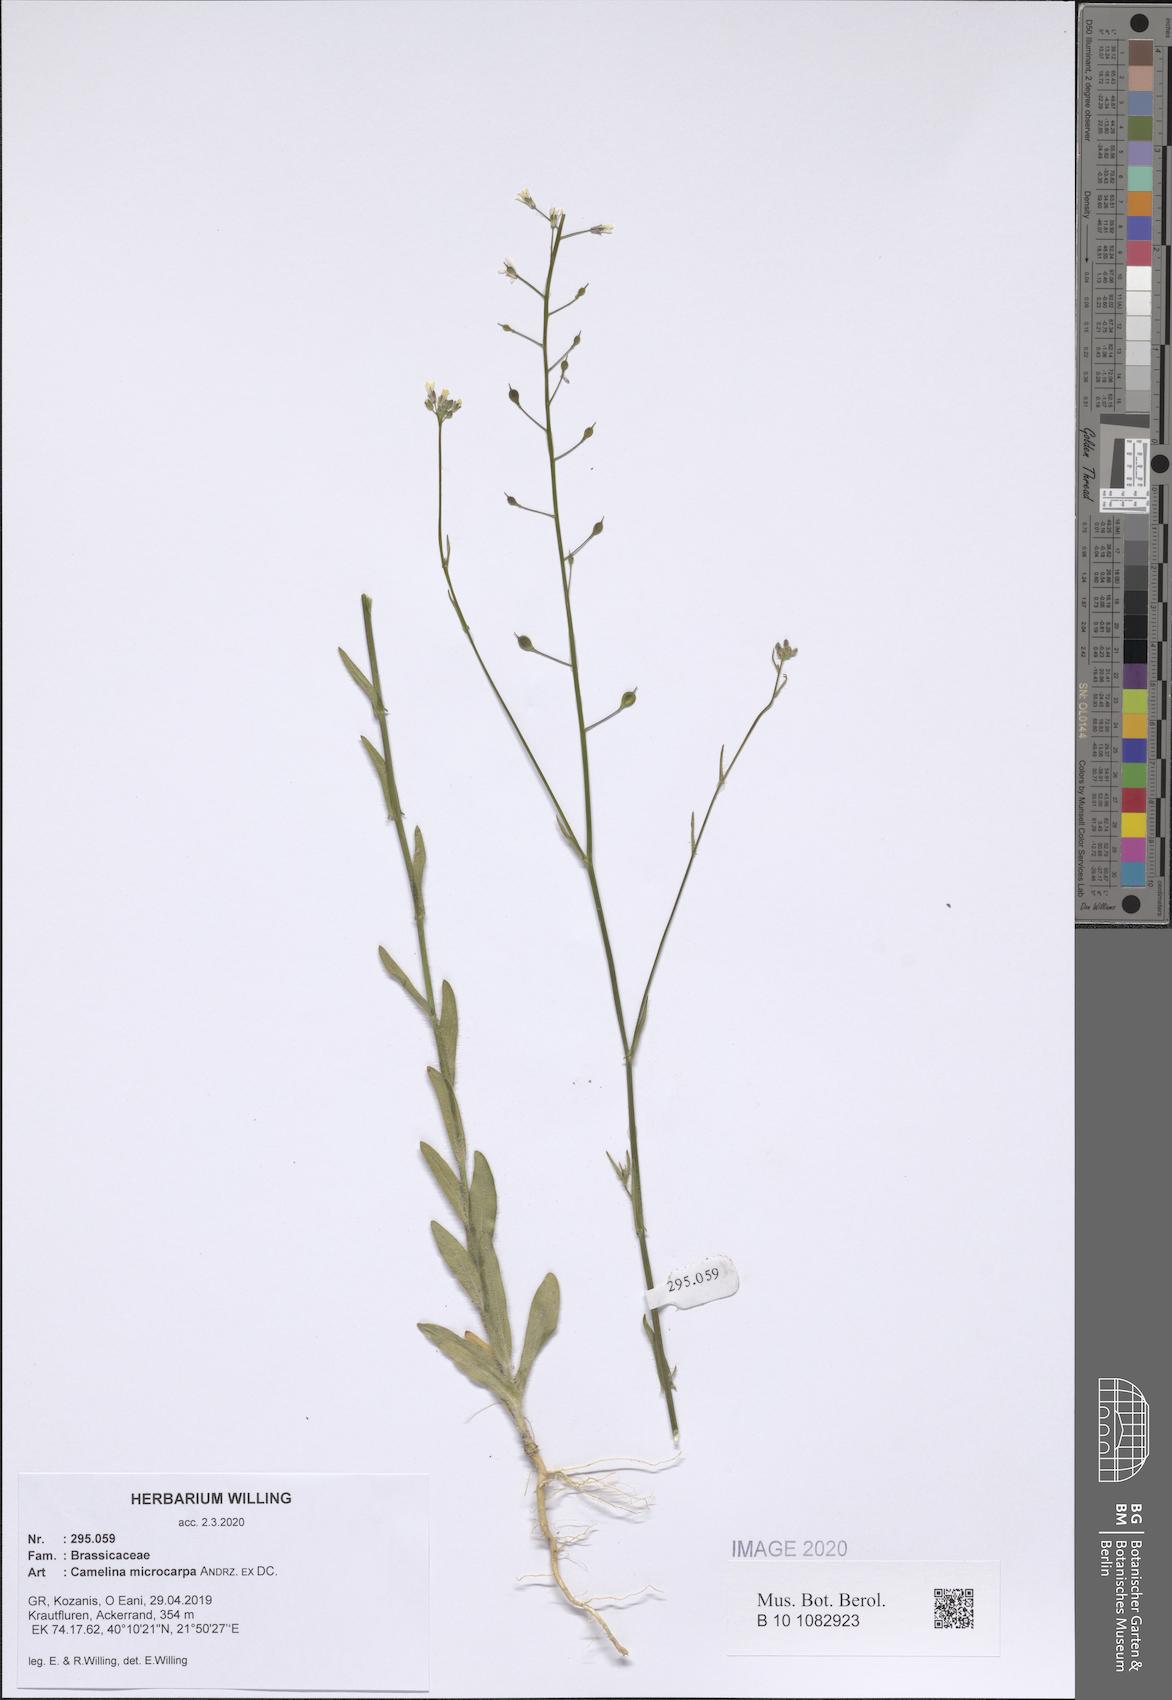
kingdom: Plantae
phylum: Tracheophyta
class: Magnoliopsida
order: Brassicales
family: Brassicaceae
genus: Camelina
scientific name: Camelina microcarpa
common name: Lesser gold-of-pleasure
